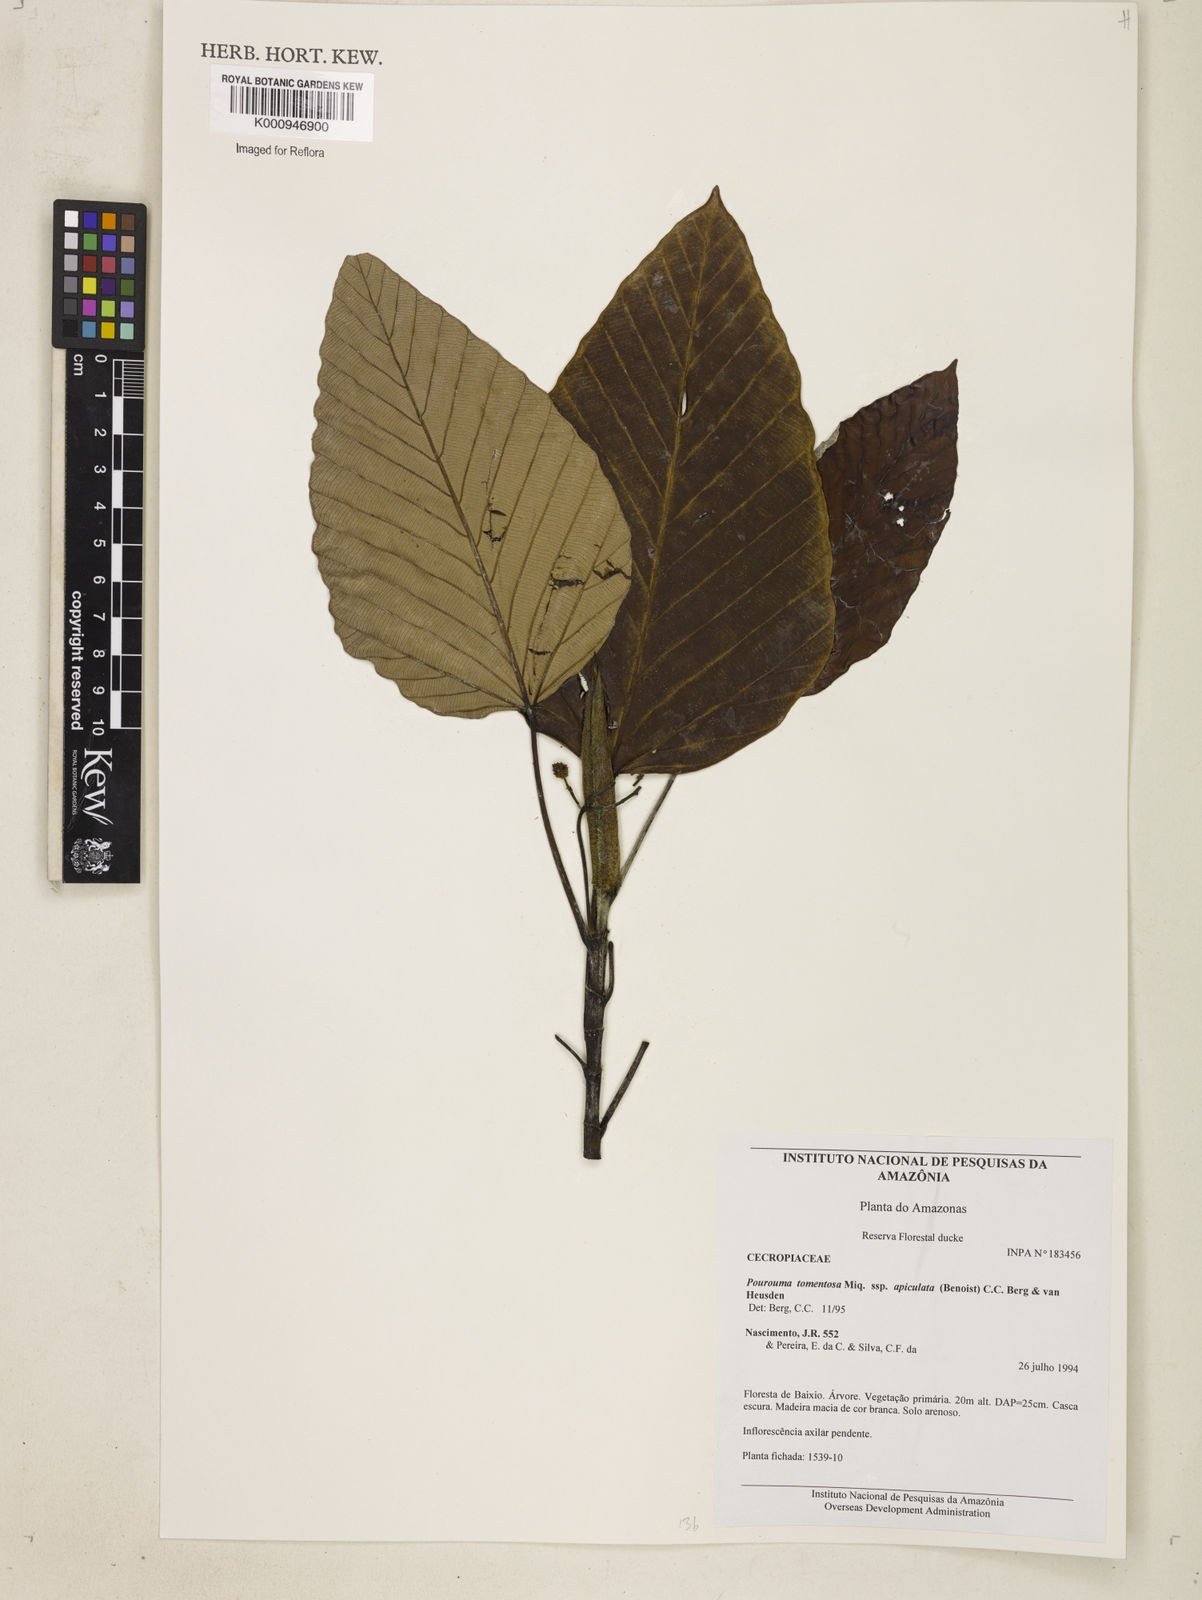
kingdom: Plantae
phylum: Tracheophyta
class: Magnoliopsida
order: Rosales
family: Urticaceae
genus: Pourouma
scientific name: Pourouma tomentosa
